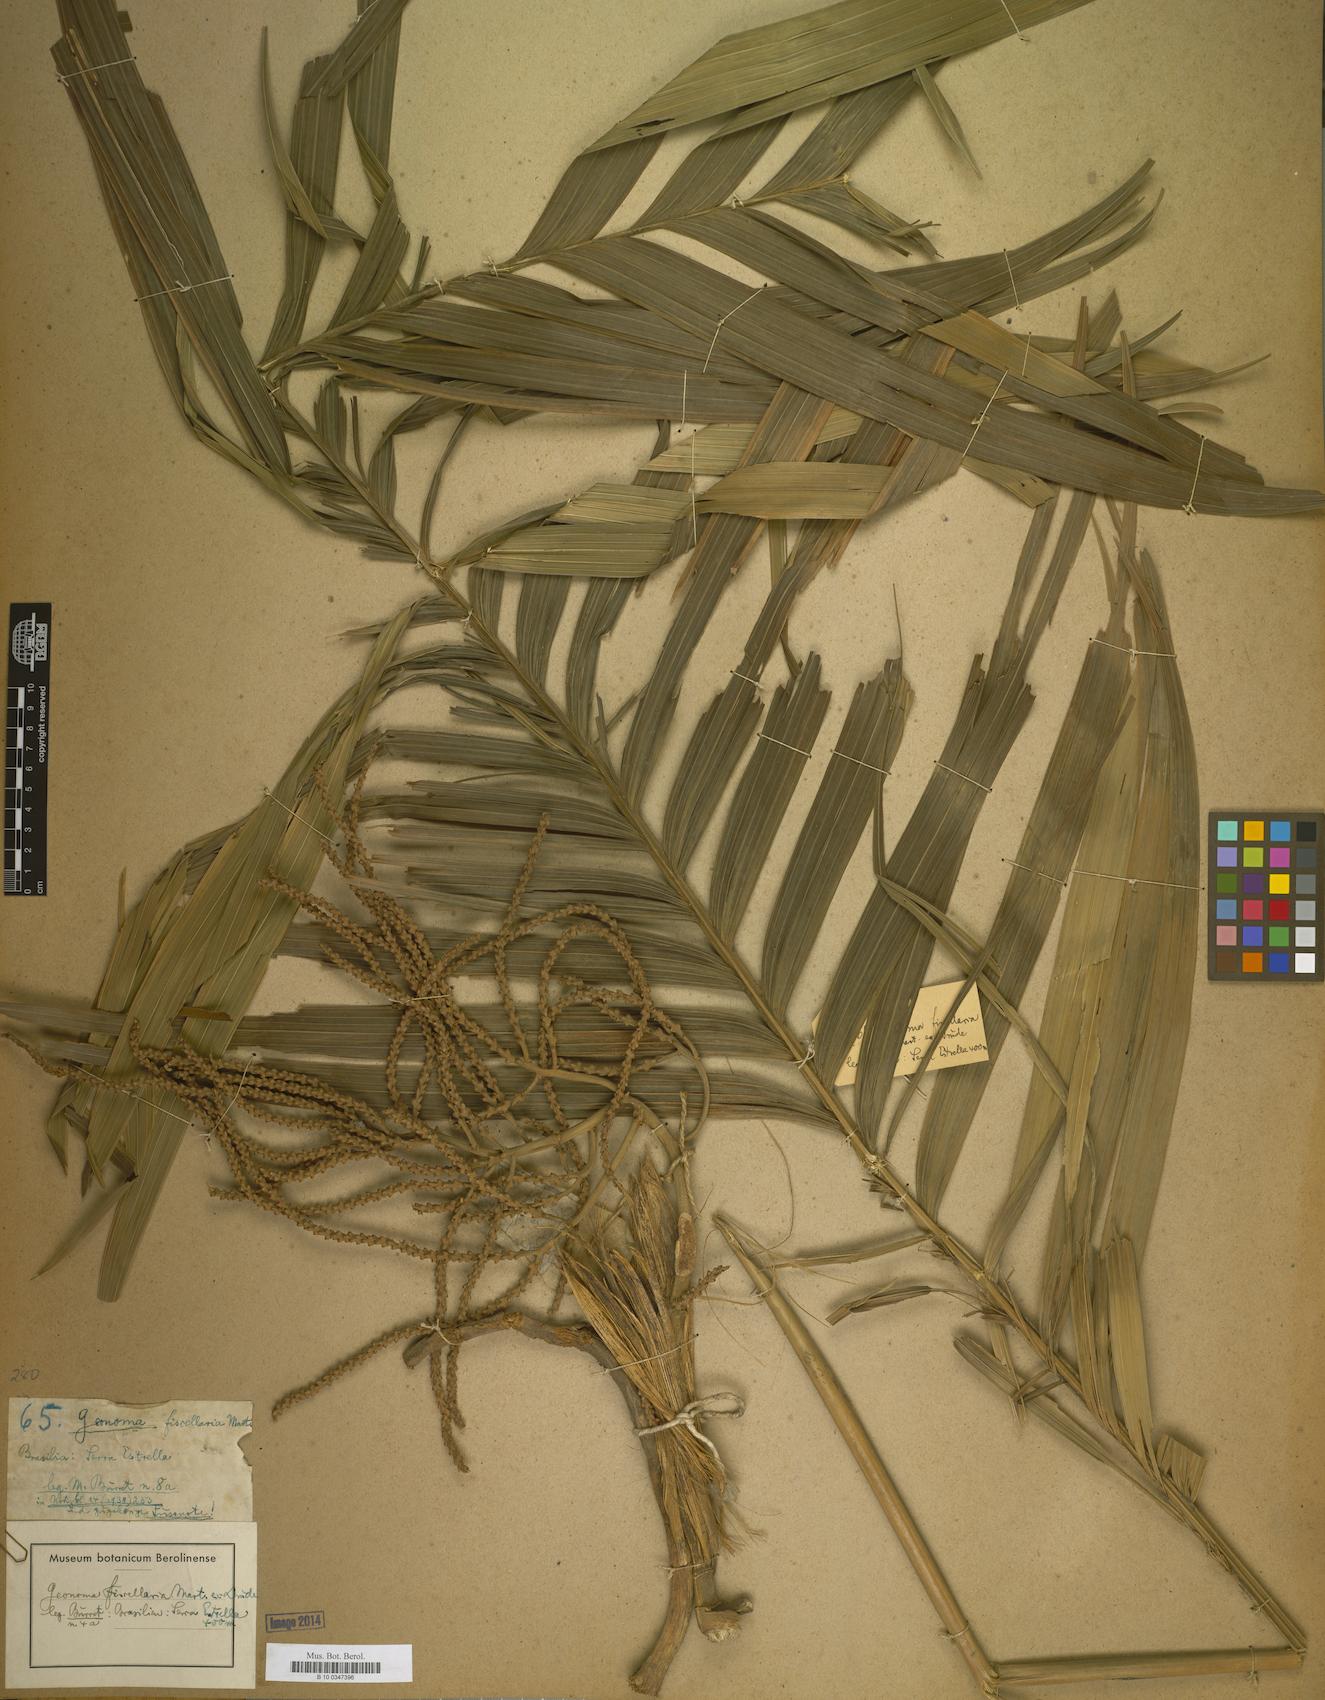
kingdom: Plantae
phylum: Tracheophyta
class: Liliopsida
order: Arecales
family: Arecaceae
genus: Geonoma
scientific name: Geonoma
